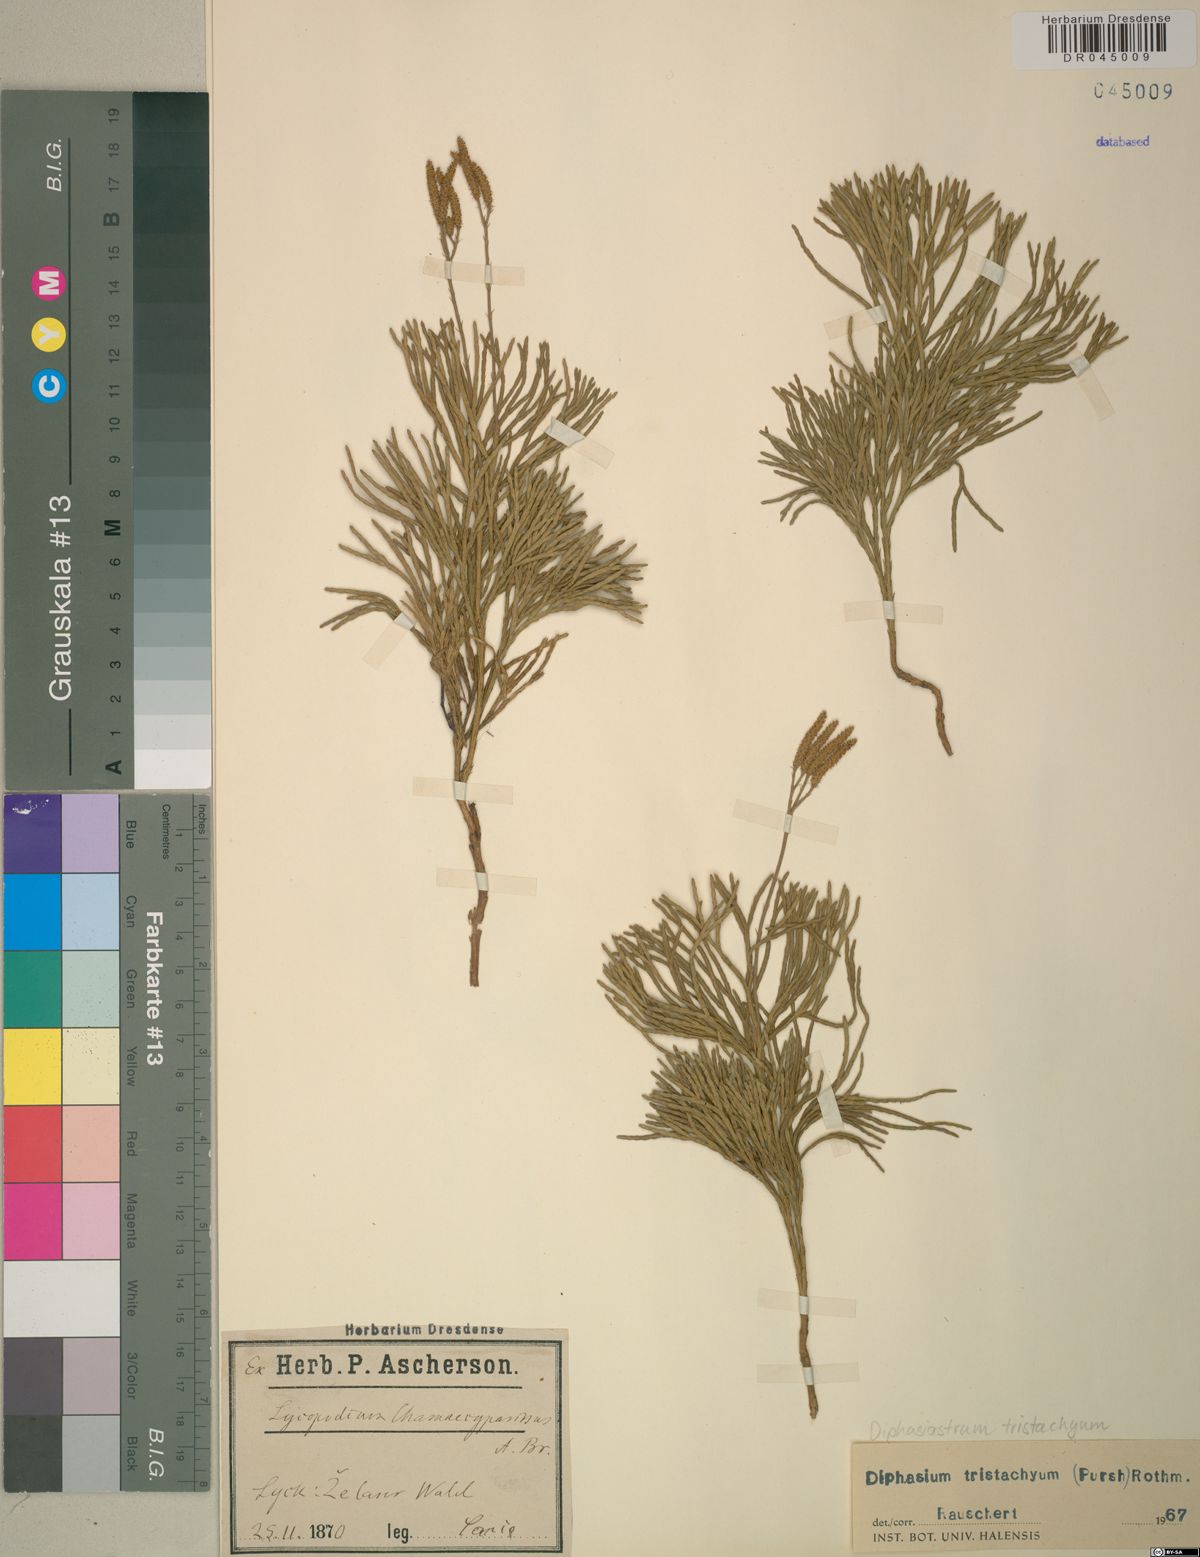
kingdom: Plantae
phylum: Tracheophyta
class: Lycopodiopsida
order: Lycopodiales
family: Lycopodiaceae
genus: Diphasiastrum
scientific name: Diphasiastrum tristachyum
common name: Blue ground-cedar
